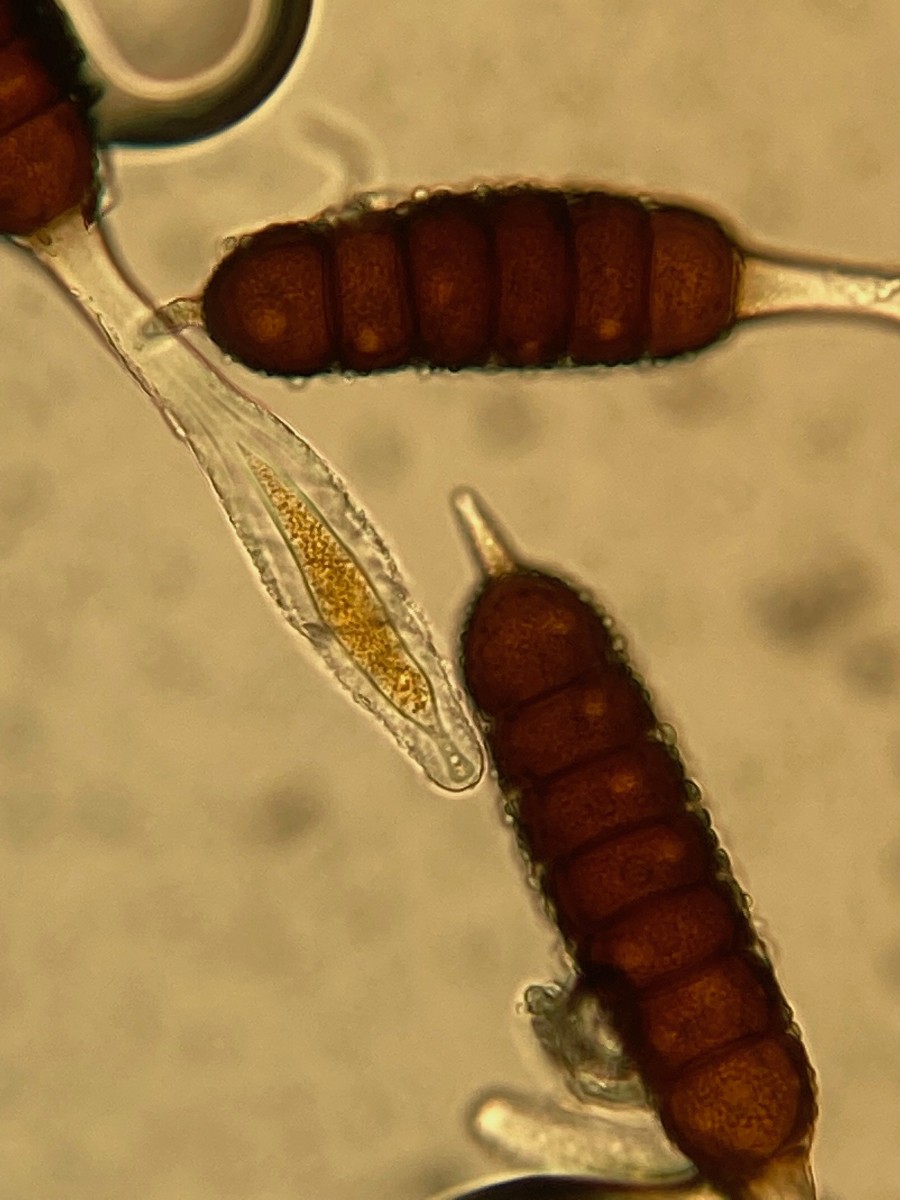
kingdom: Fungi
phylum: Basidiomycota
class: Pucciniomycetes
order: Pucciniales
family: Phragmidiaceae
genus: Phragmidium
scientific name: Phragmidium tuberculatum
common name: Rose rust
